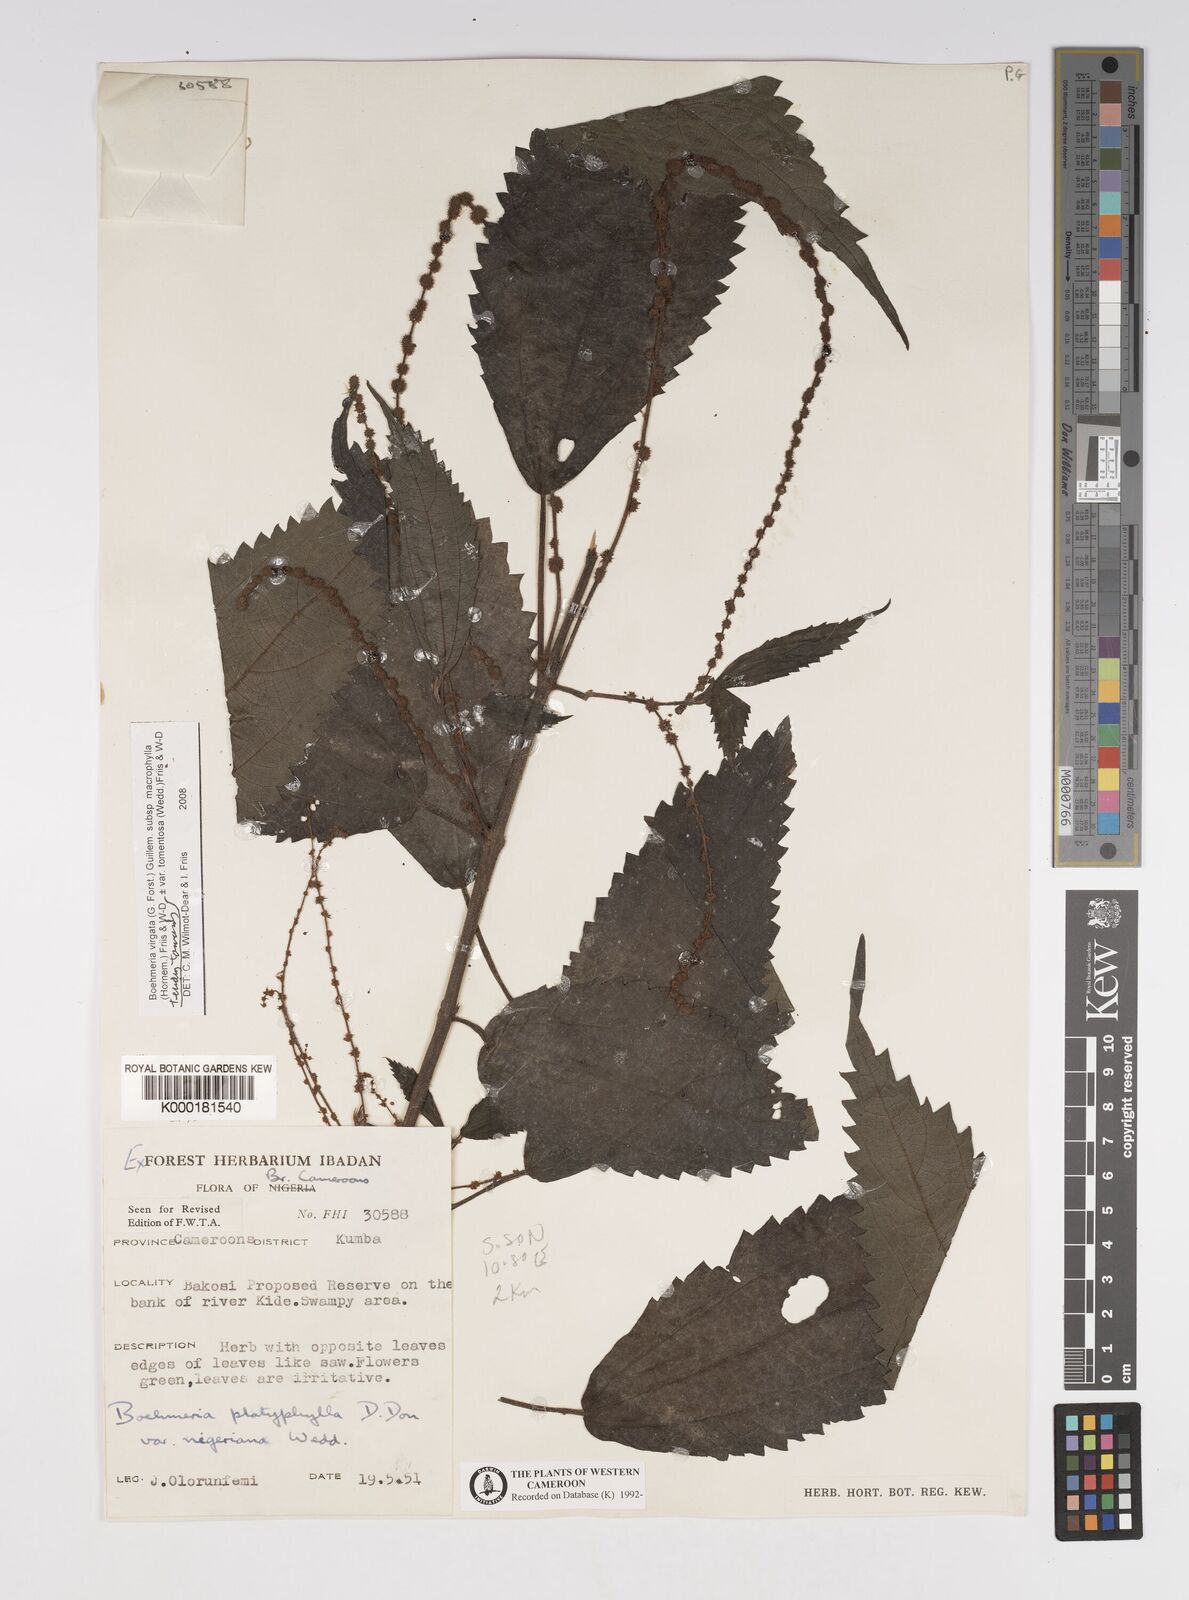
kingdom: Plantae
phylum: Tracheophyta
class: Magnoliopsida
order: Rosales
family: Urticaceae
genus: Boehmeria
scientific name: Boehmeria virgata
